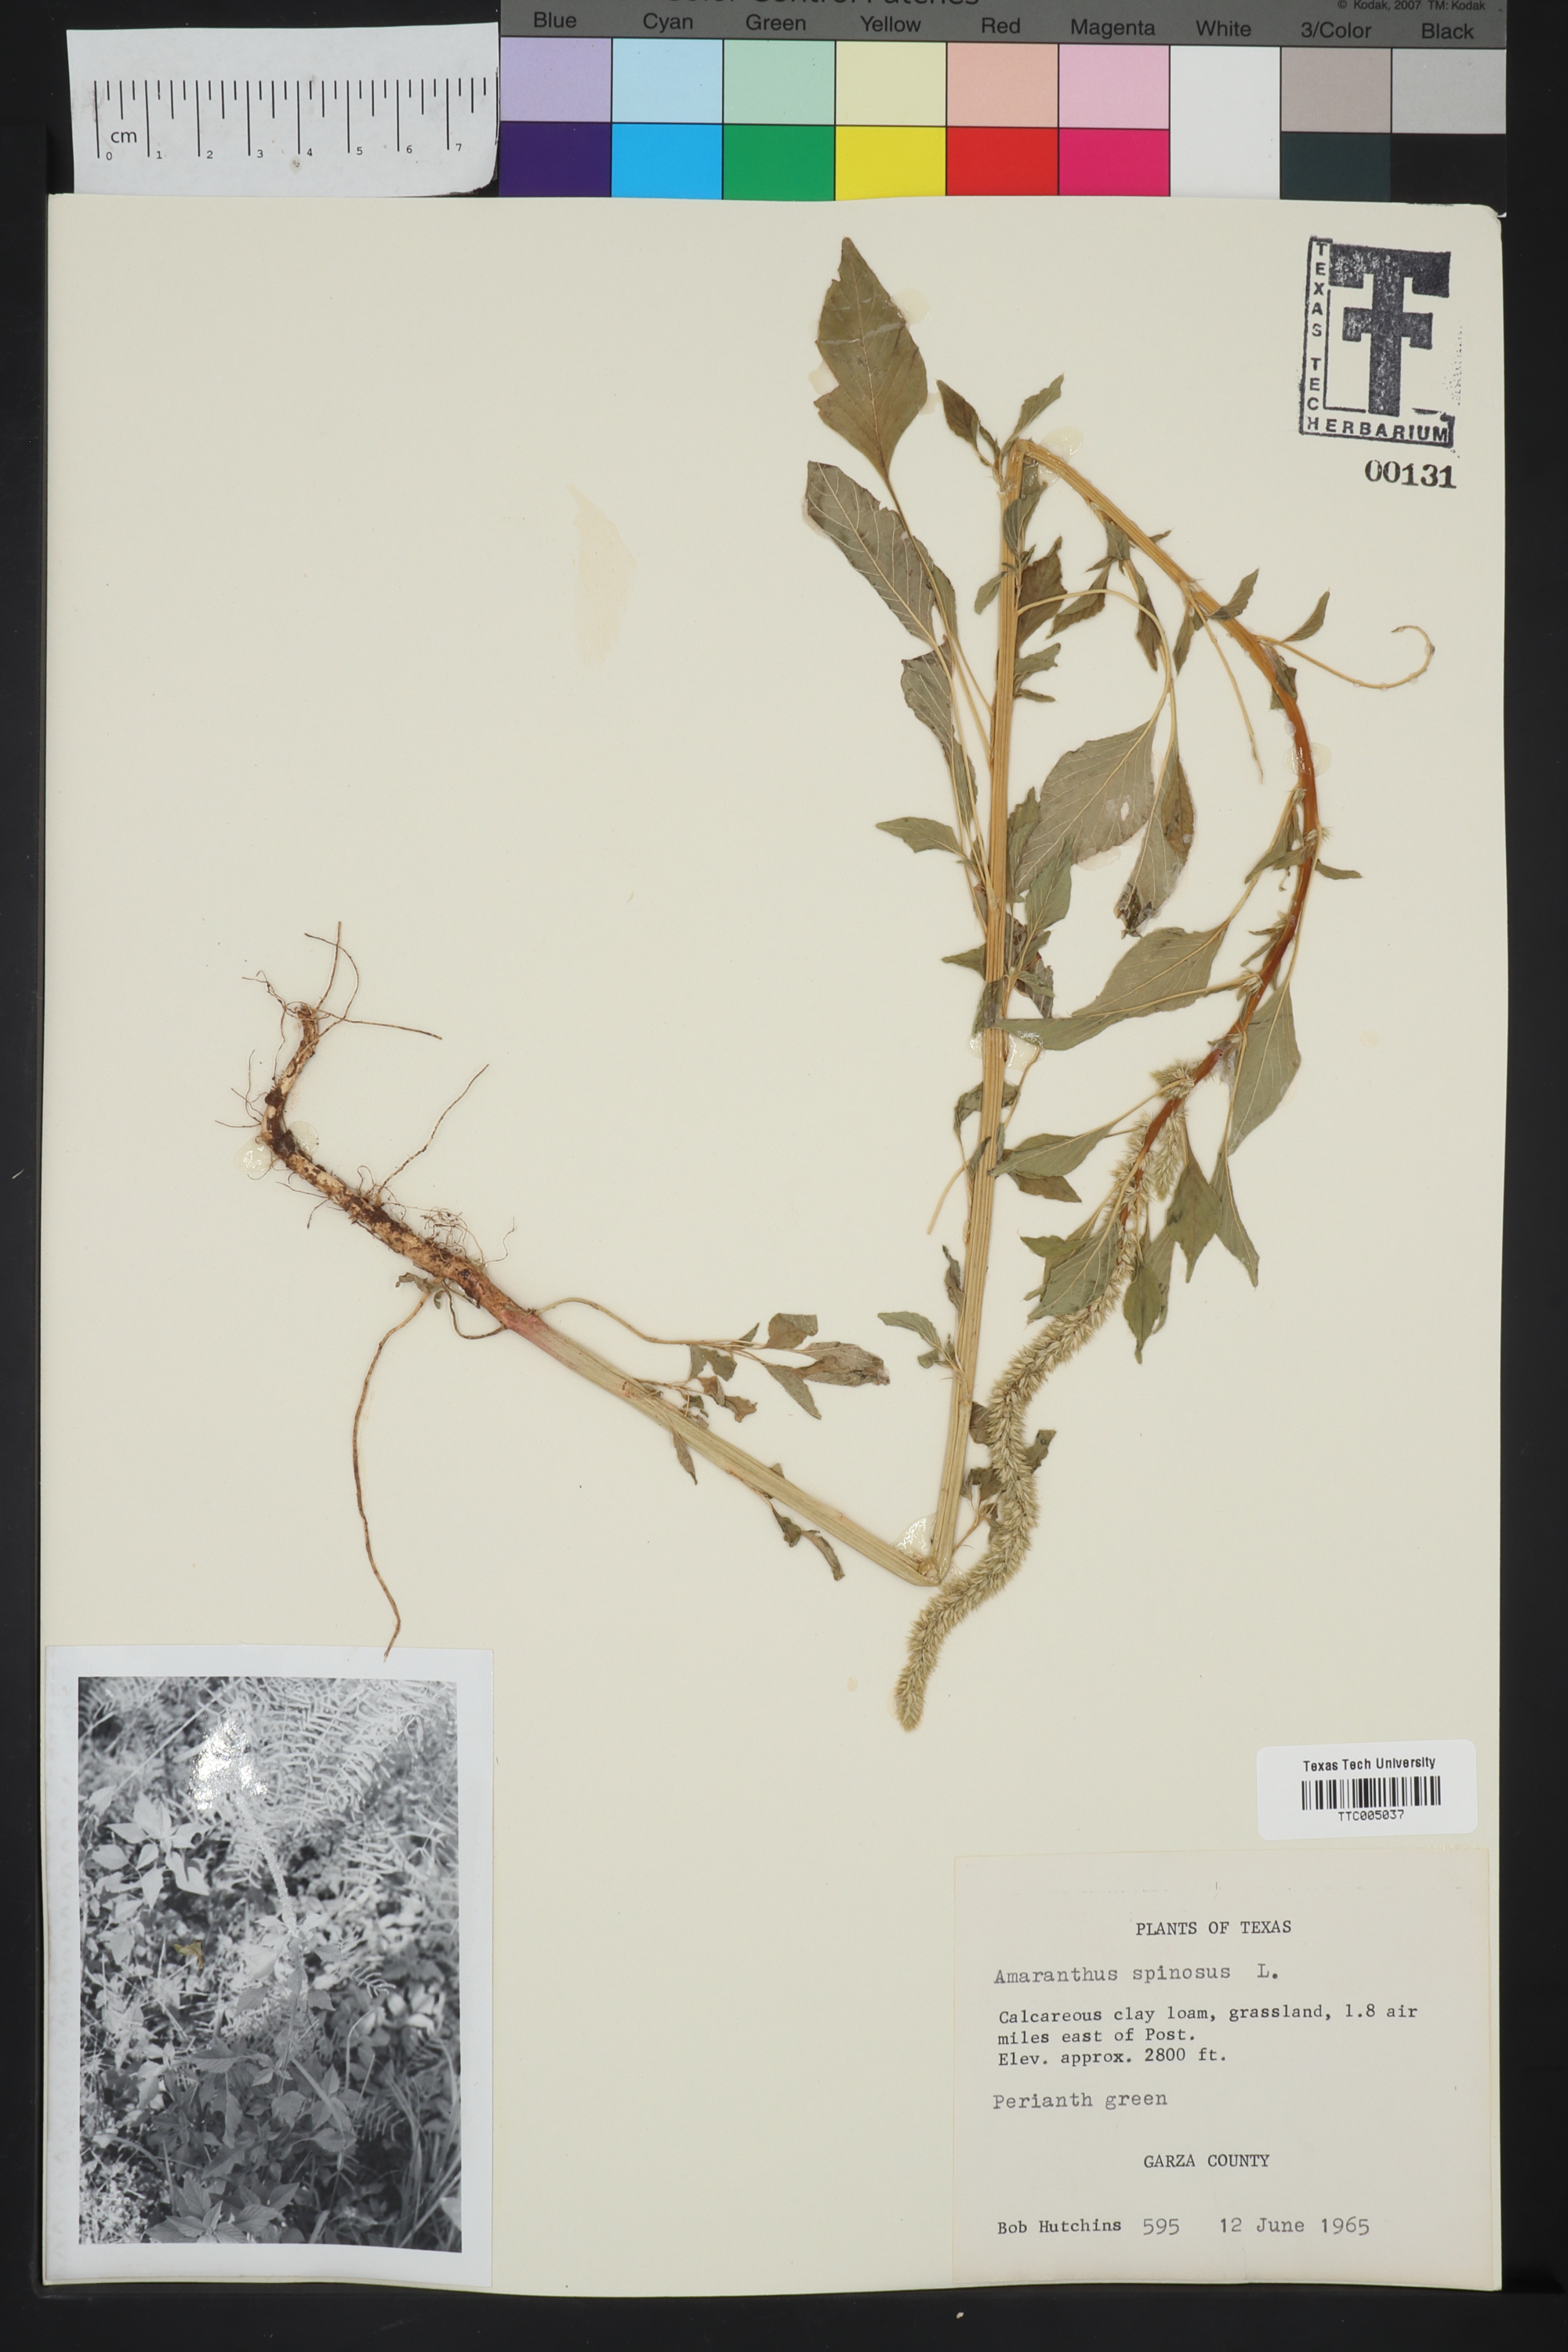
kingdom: Plantae
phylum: Tracheophyta
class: Magnoliopsida
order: Caryophyllales
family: Amaranthaceae
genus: Amaranthus
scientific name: Amaranthus spinosus
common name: Spiny amaranth
